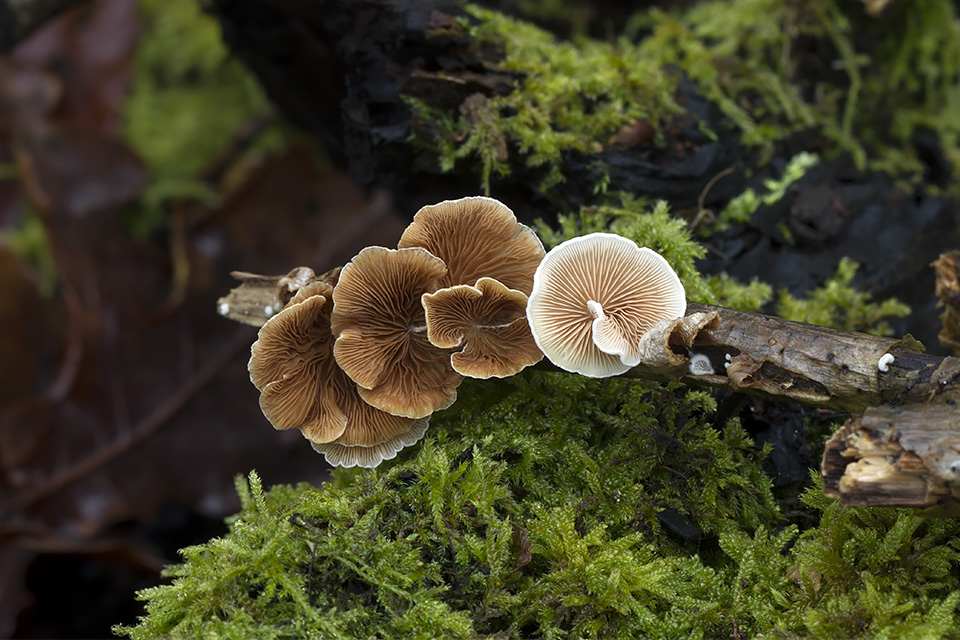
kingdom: Fungi
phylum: Basidiomycota
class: Agaricomycetes
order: Agaricales
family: Crepidotaceae
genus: Crepidotus
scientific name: Crepidotus variabilis
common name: forskelligformet muslingesvamp
